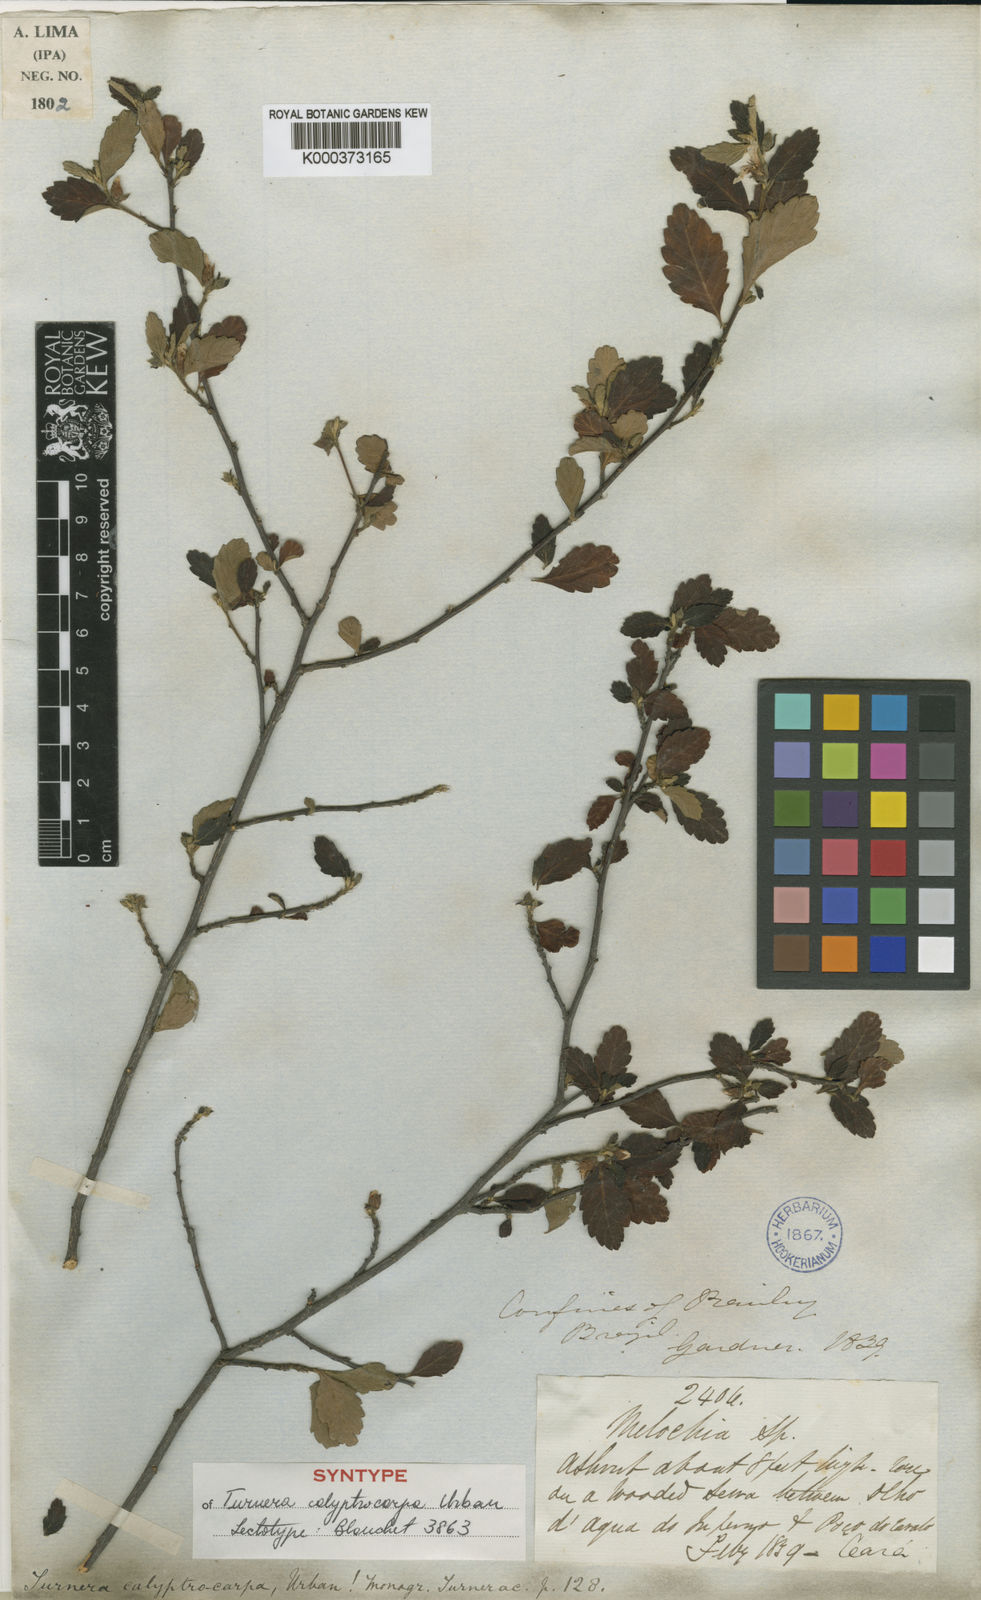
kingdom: Plantae
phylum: Tracheophyta
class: Magnoliopsida
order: Malpighiales
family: Turneraceae
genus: Oxossia
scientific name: Oxossia calyptrocarpa
